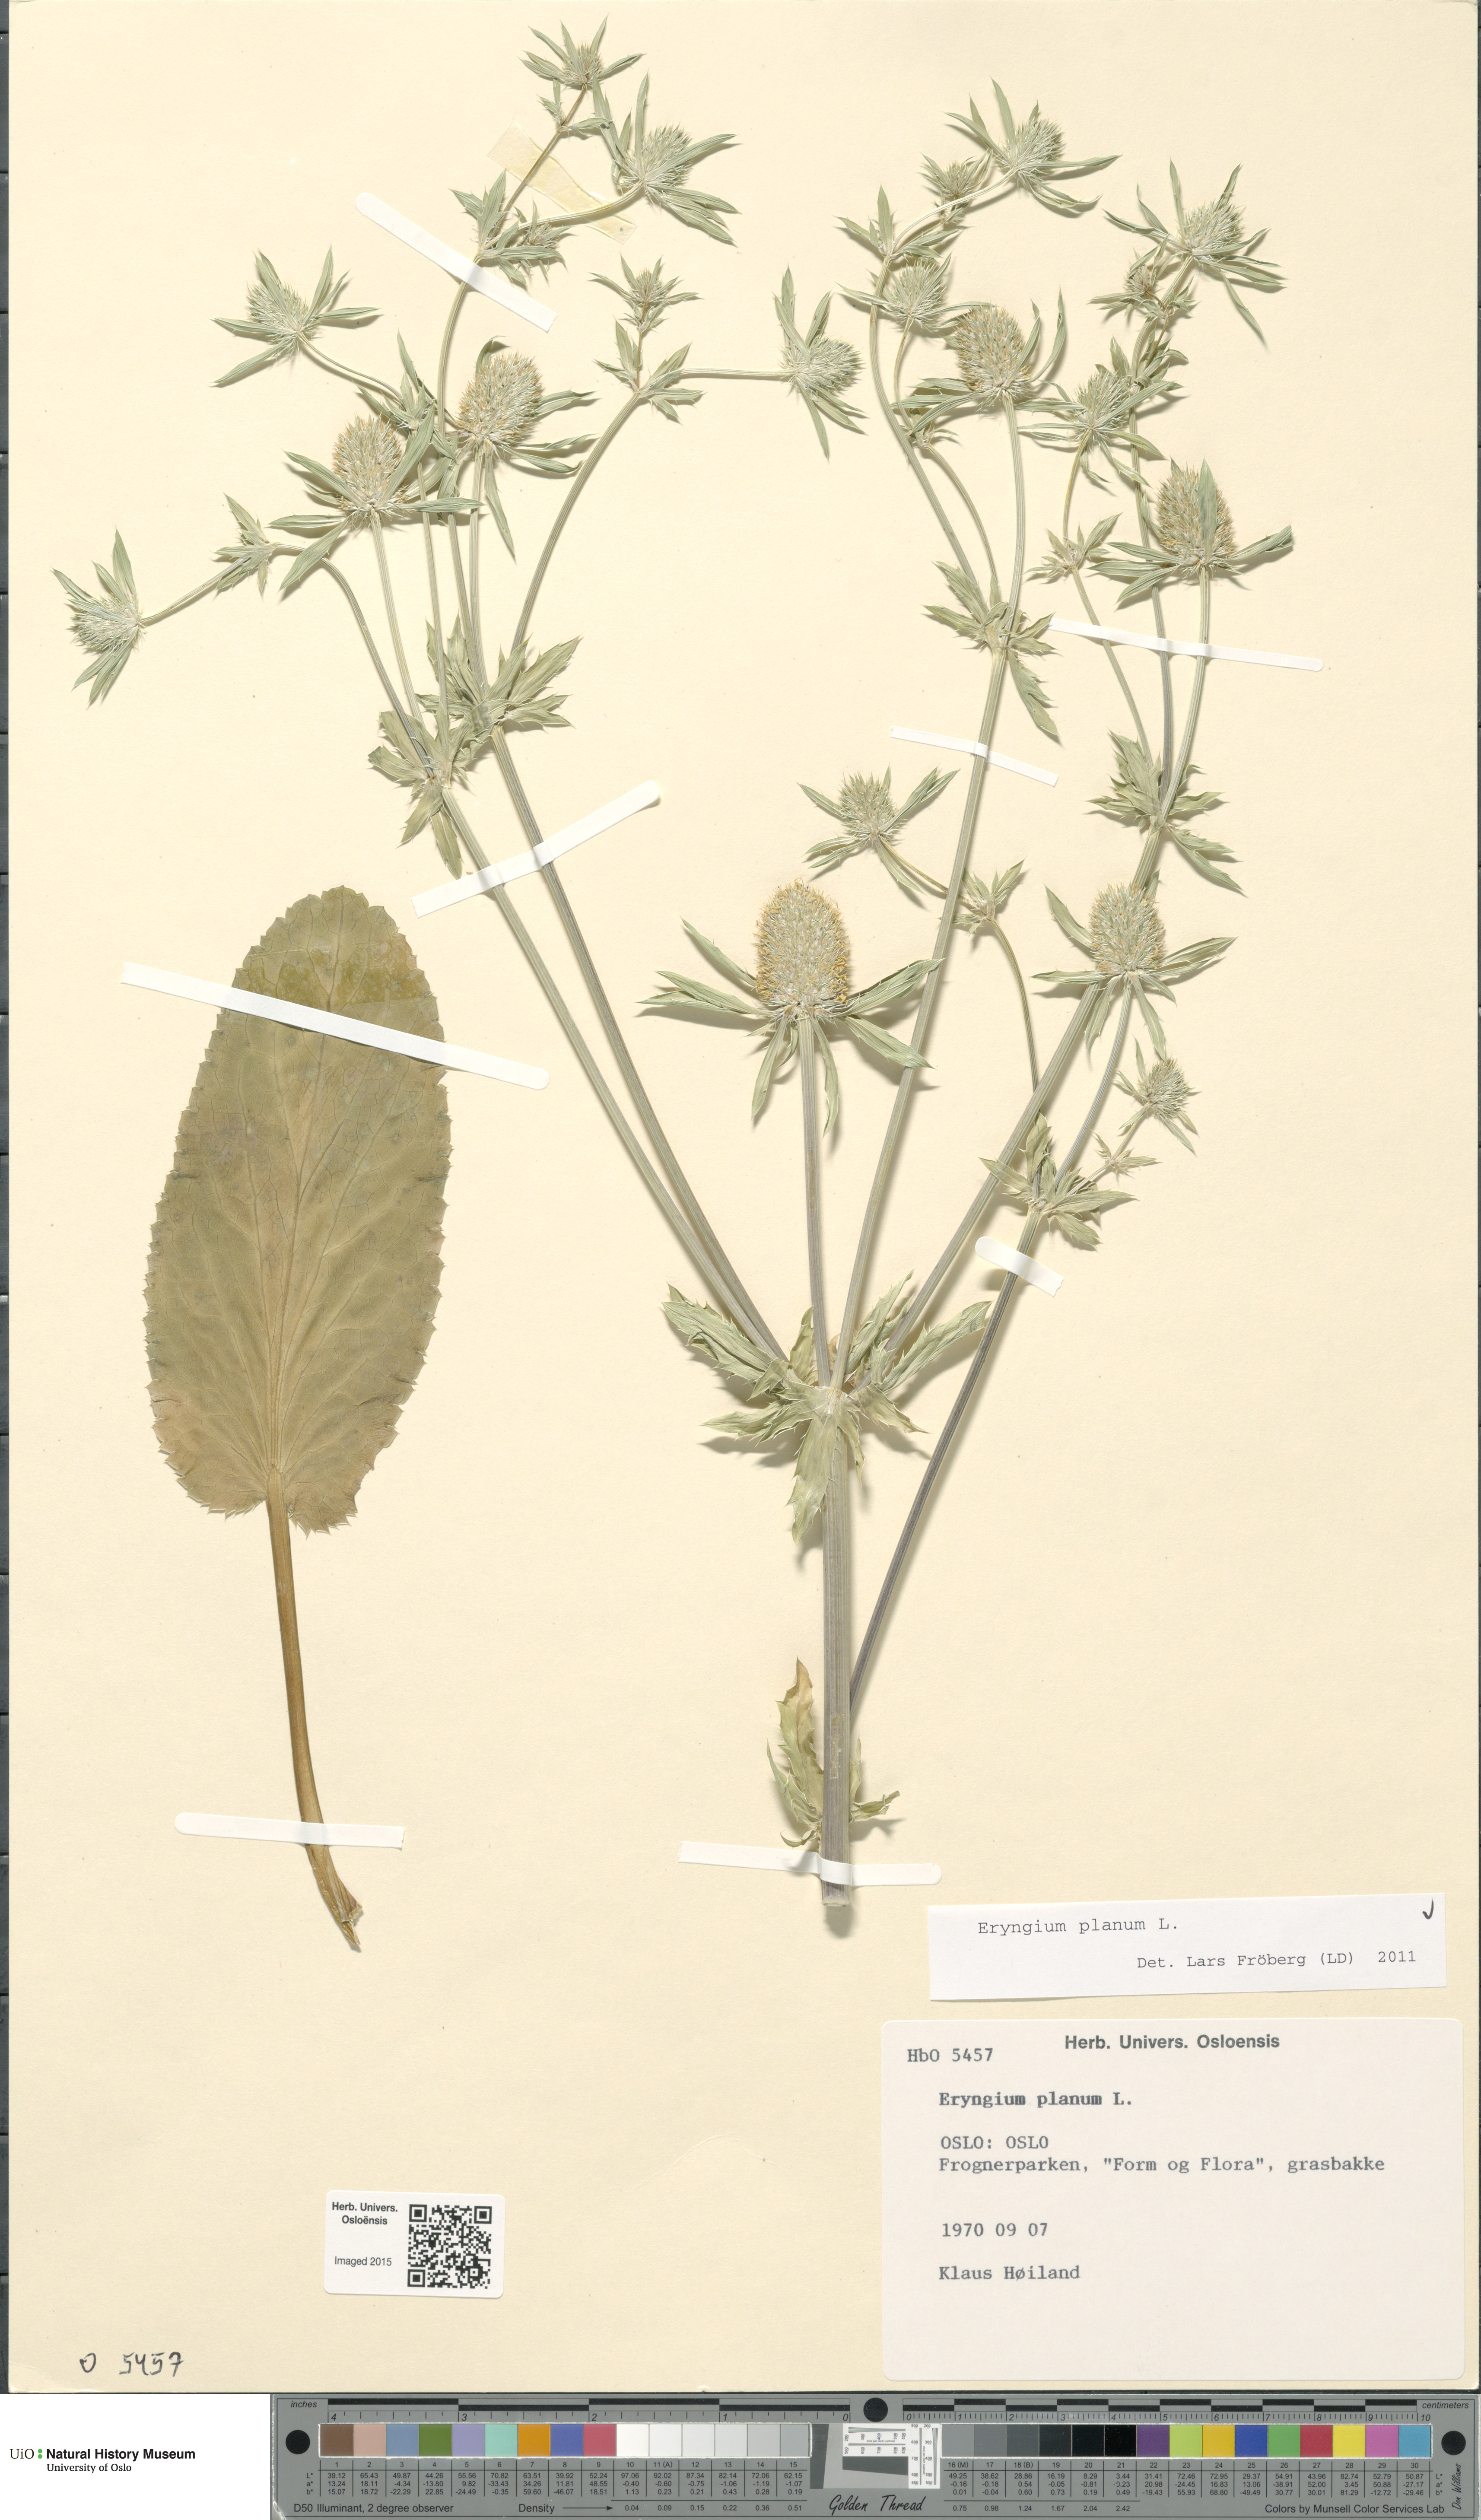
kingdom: Plantae
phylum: Tracheophyta
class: Magnoliopsida
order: Apiales
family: Apiaceae
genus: Eryngium
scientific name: Eryngium planum
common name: Blue eryngo
